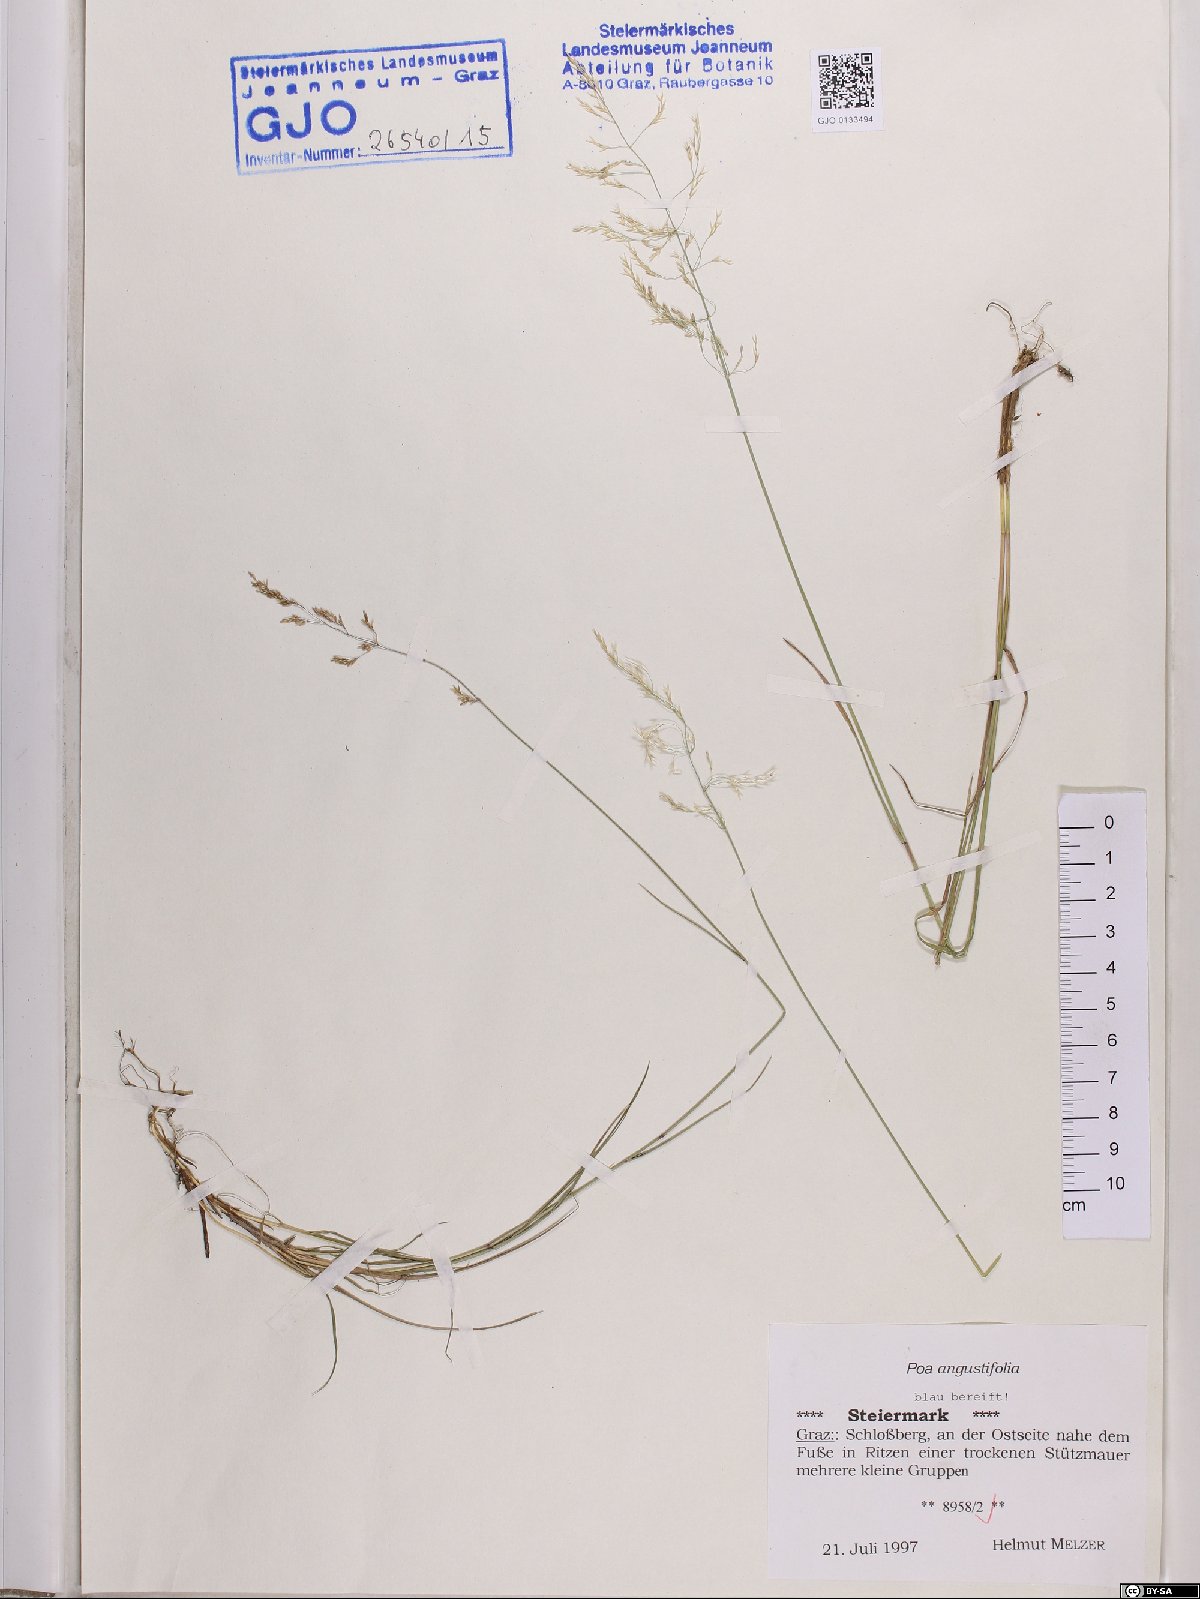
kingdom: Plantae
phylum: Tracheophyta
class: Liliopsida
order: Poales
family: Poaceae
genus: Poa
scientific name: Poa angustifolia
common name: Narrow-leaved meadow-grass
